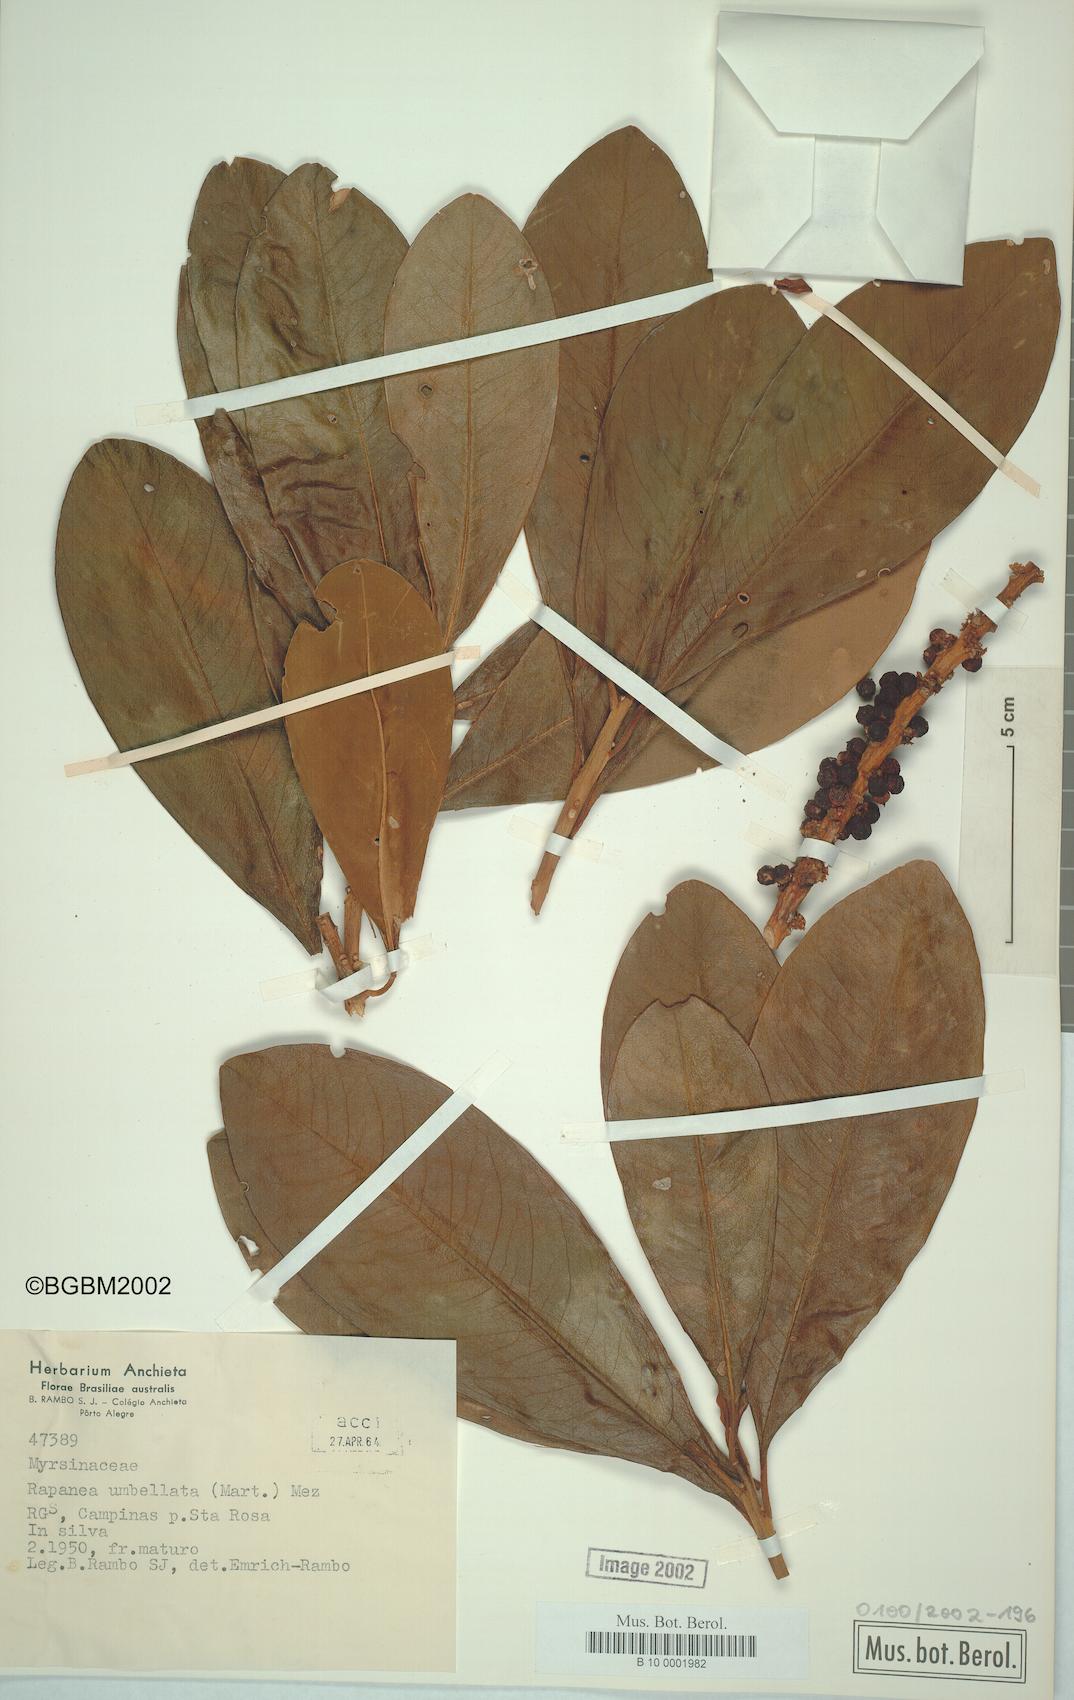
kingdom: Plantae
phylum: Tracheophyta
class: Magnoliopsida
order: Ericales
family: Primulaceae
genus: Myrsine
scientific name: Myrsine umbellata
